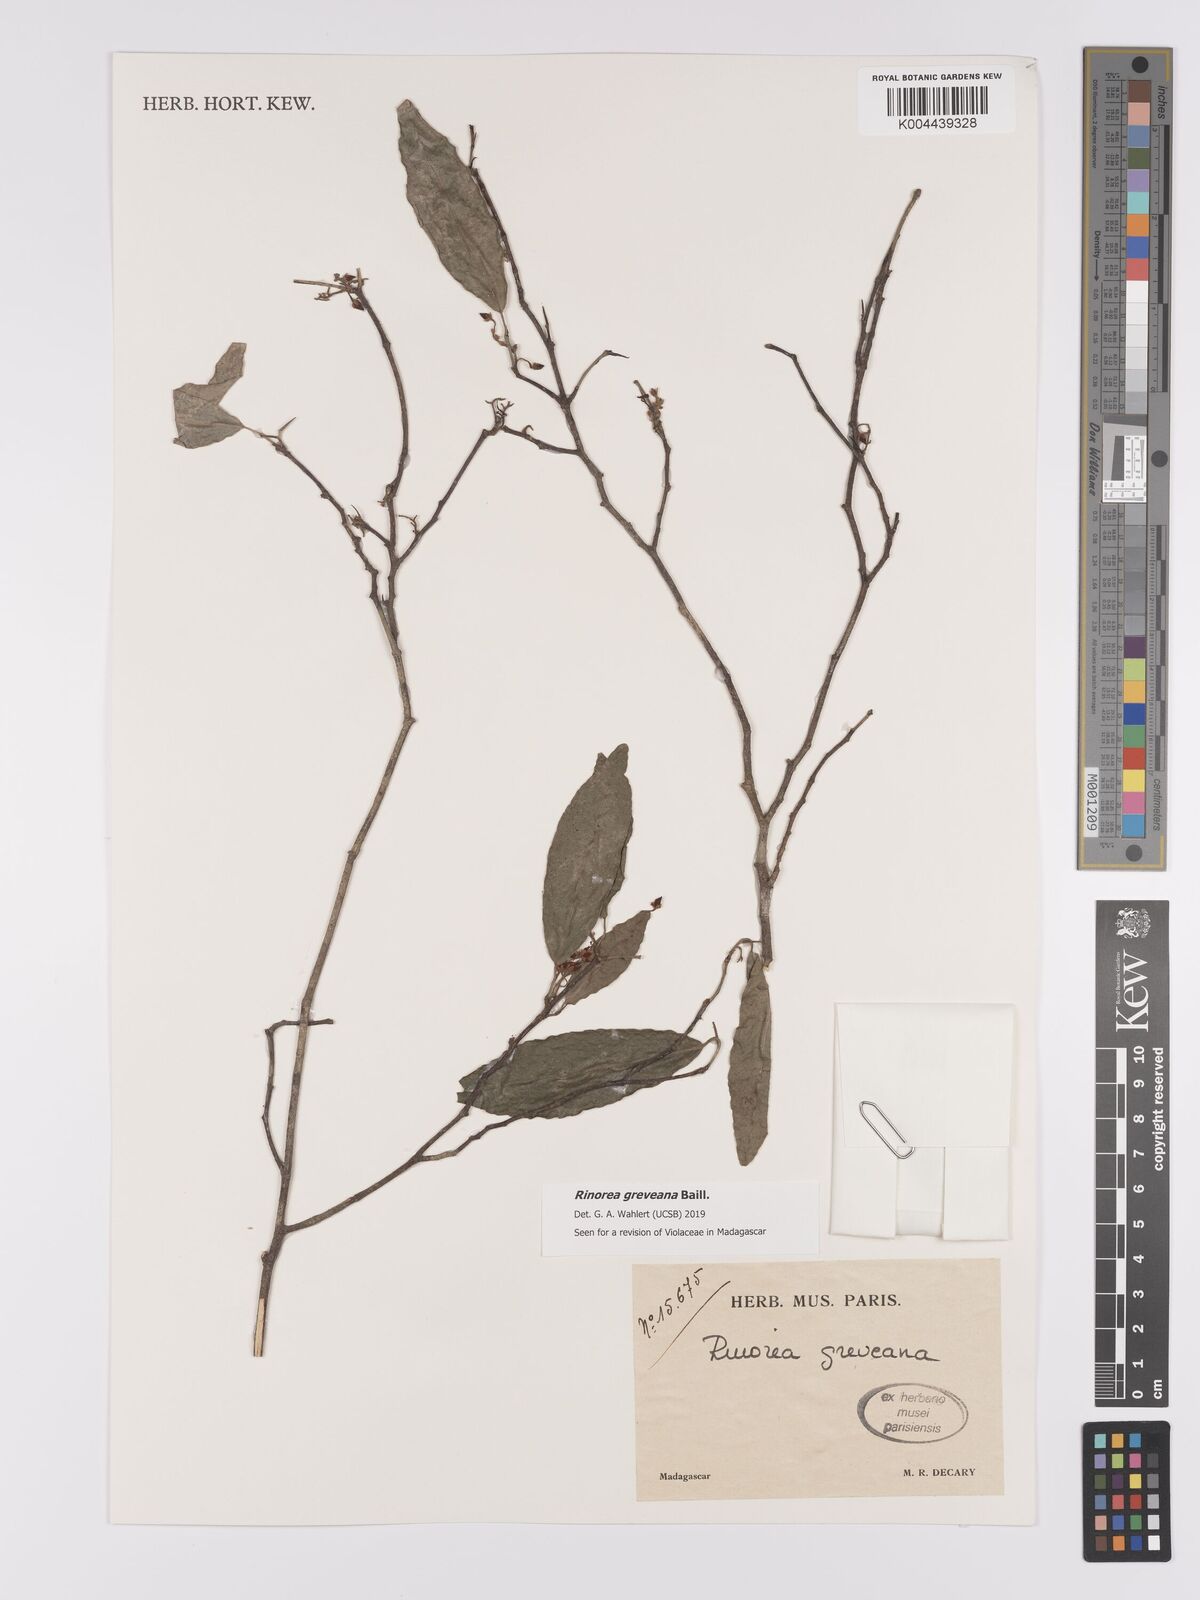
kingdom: Plantae
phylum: Tracheophyta
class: Magnoliopsida
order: Malpighiales
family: Violaceae
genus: Rinorea
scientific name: Rinorea greveana
